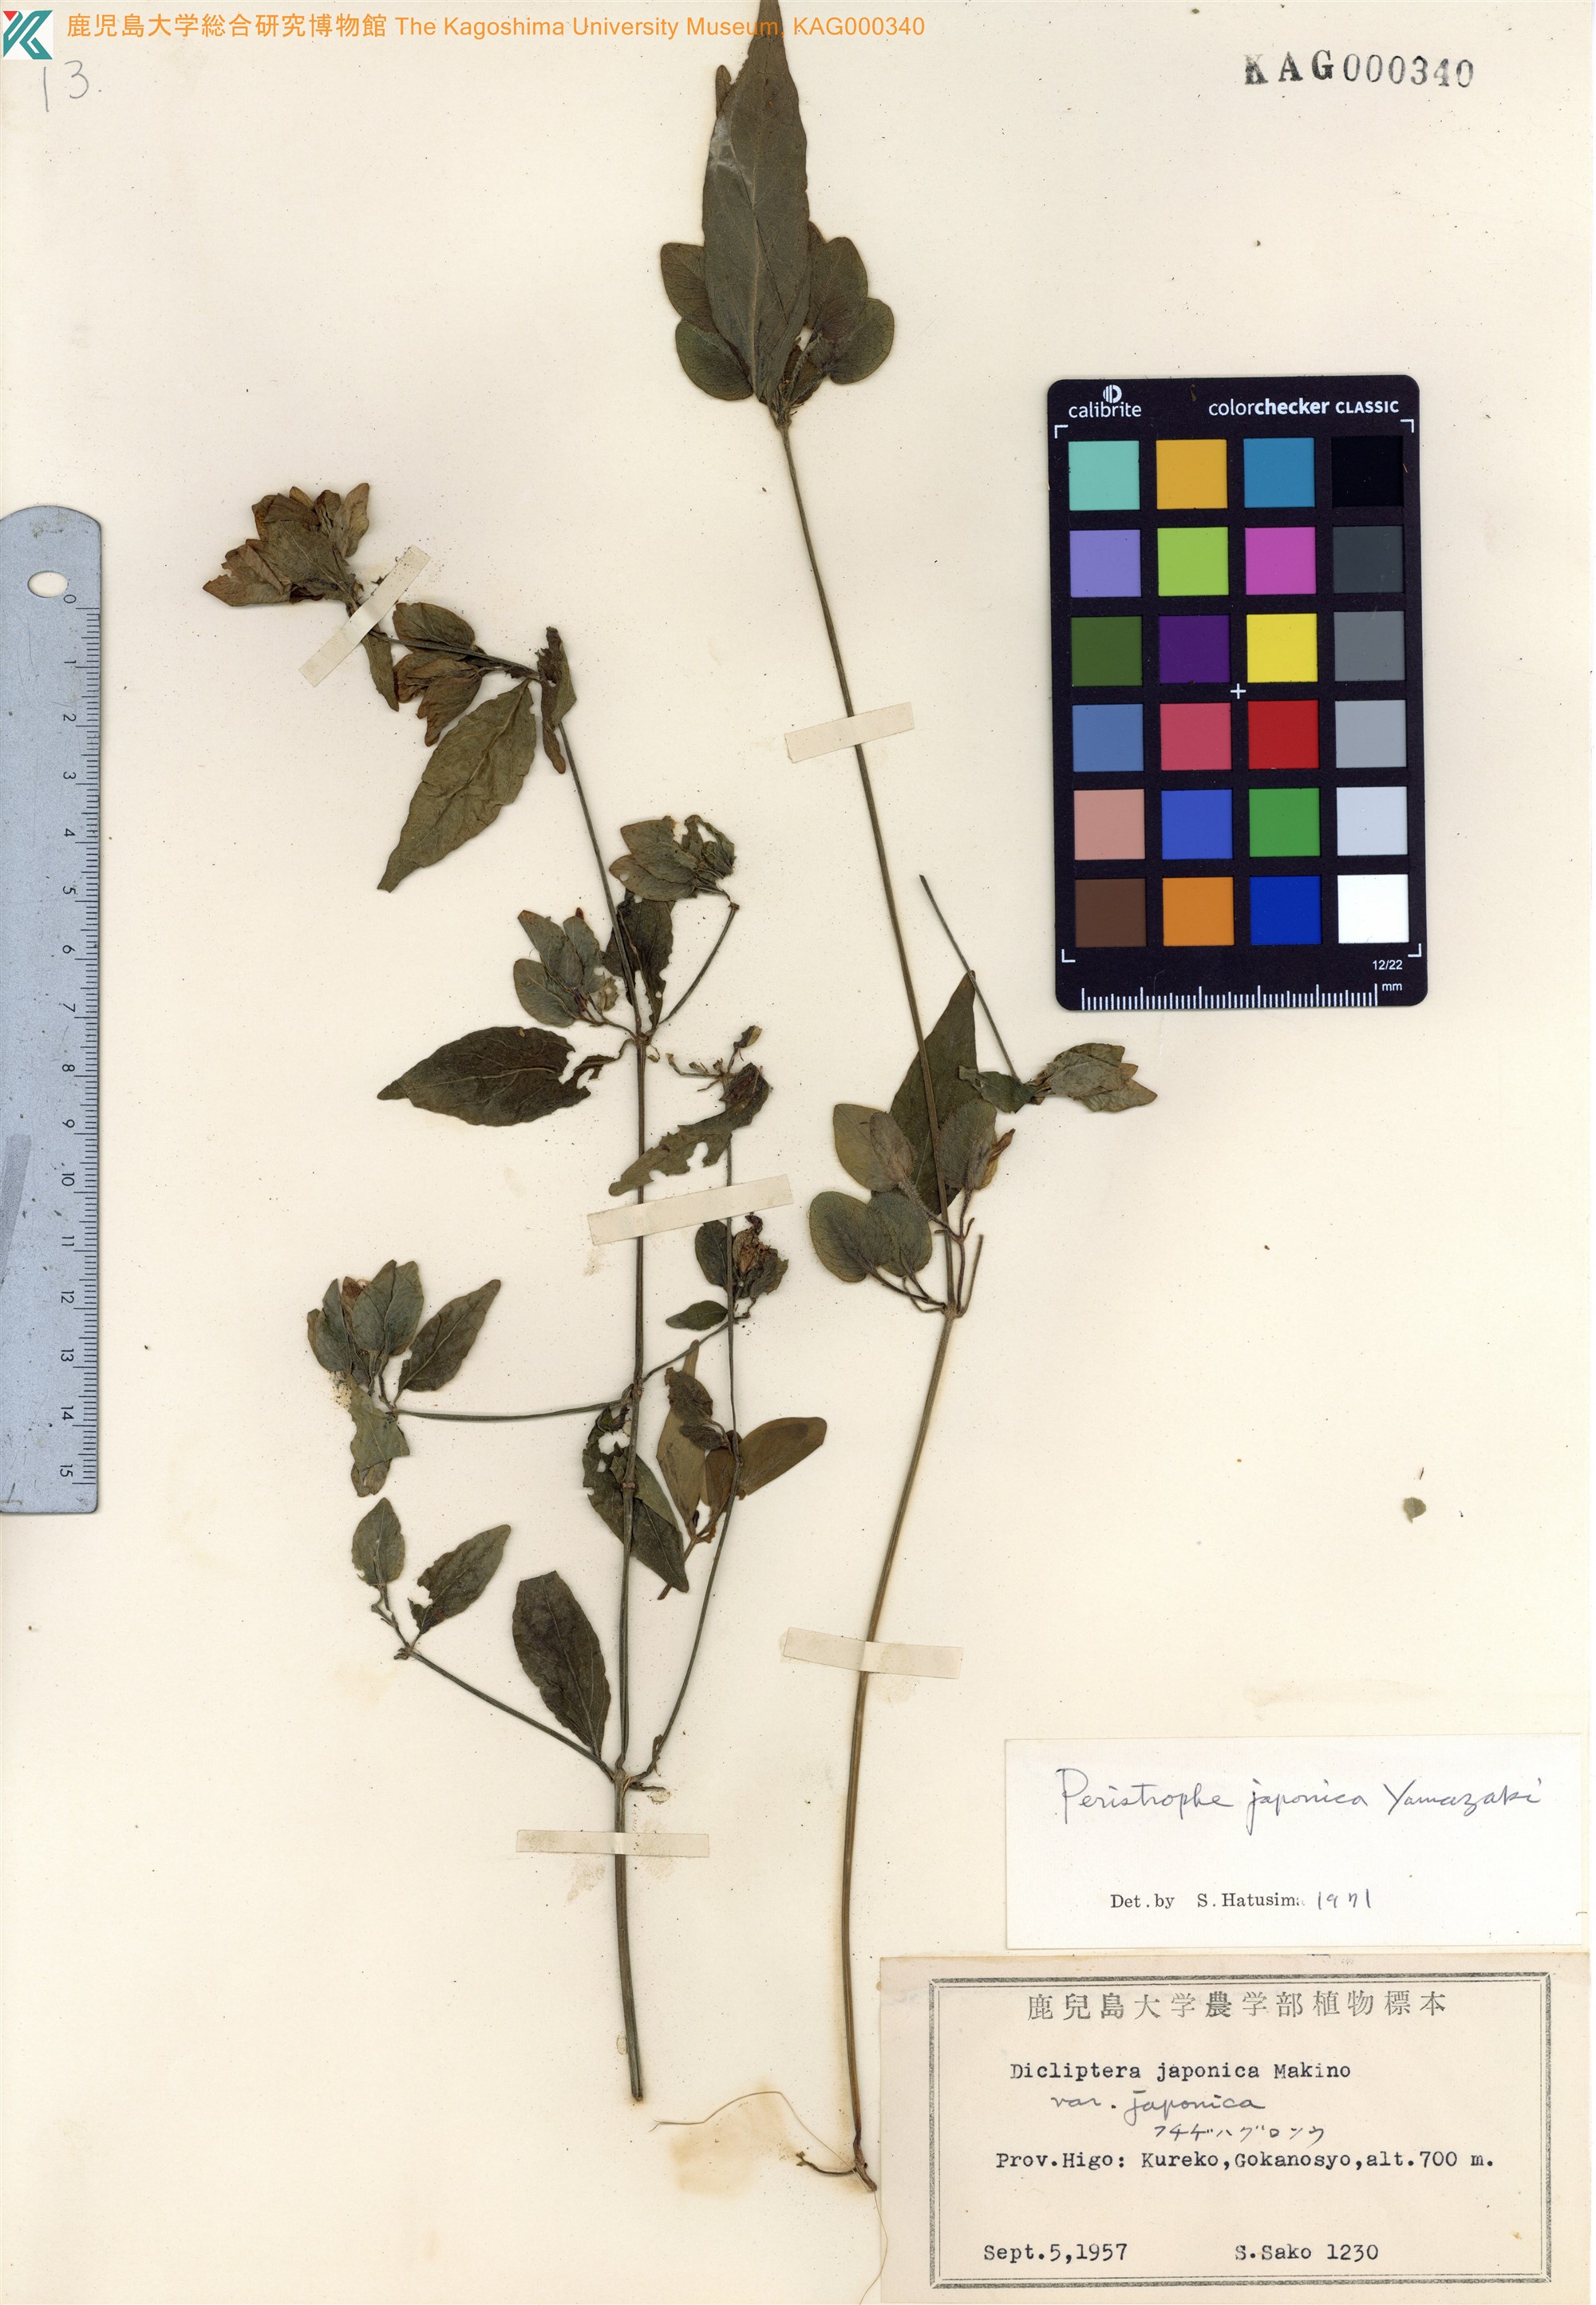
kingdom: Plantae
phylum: Tracheophyta
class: Magnoliopsida
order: Lamiales
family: Acanthaceae
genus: Dicliptera
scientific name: Dicliptera japonica
